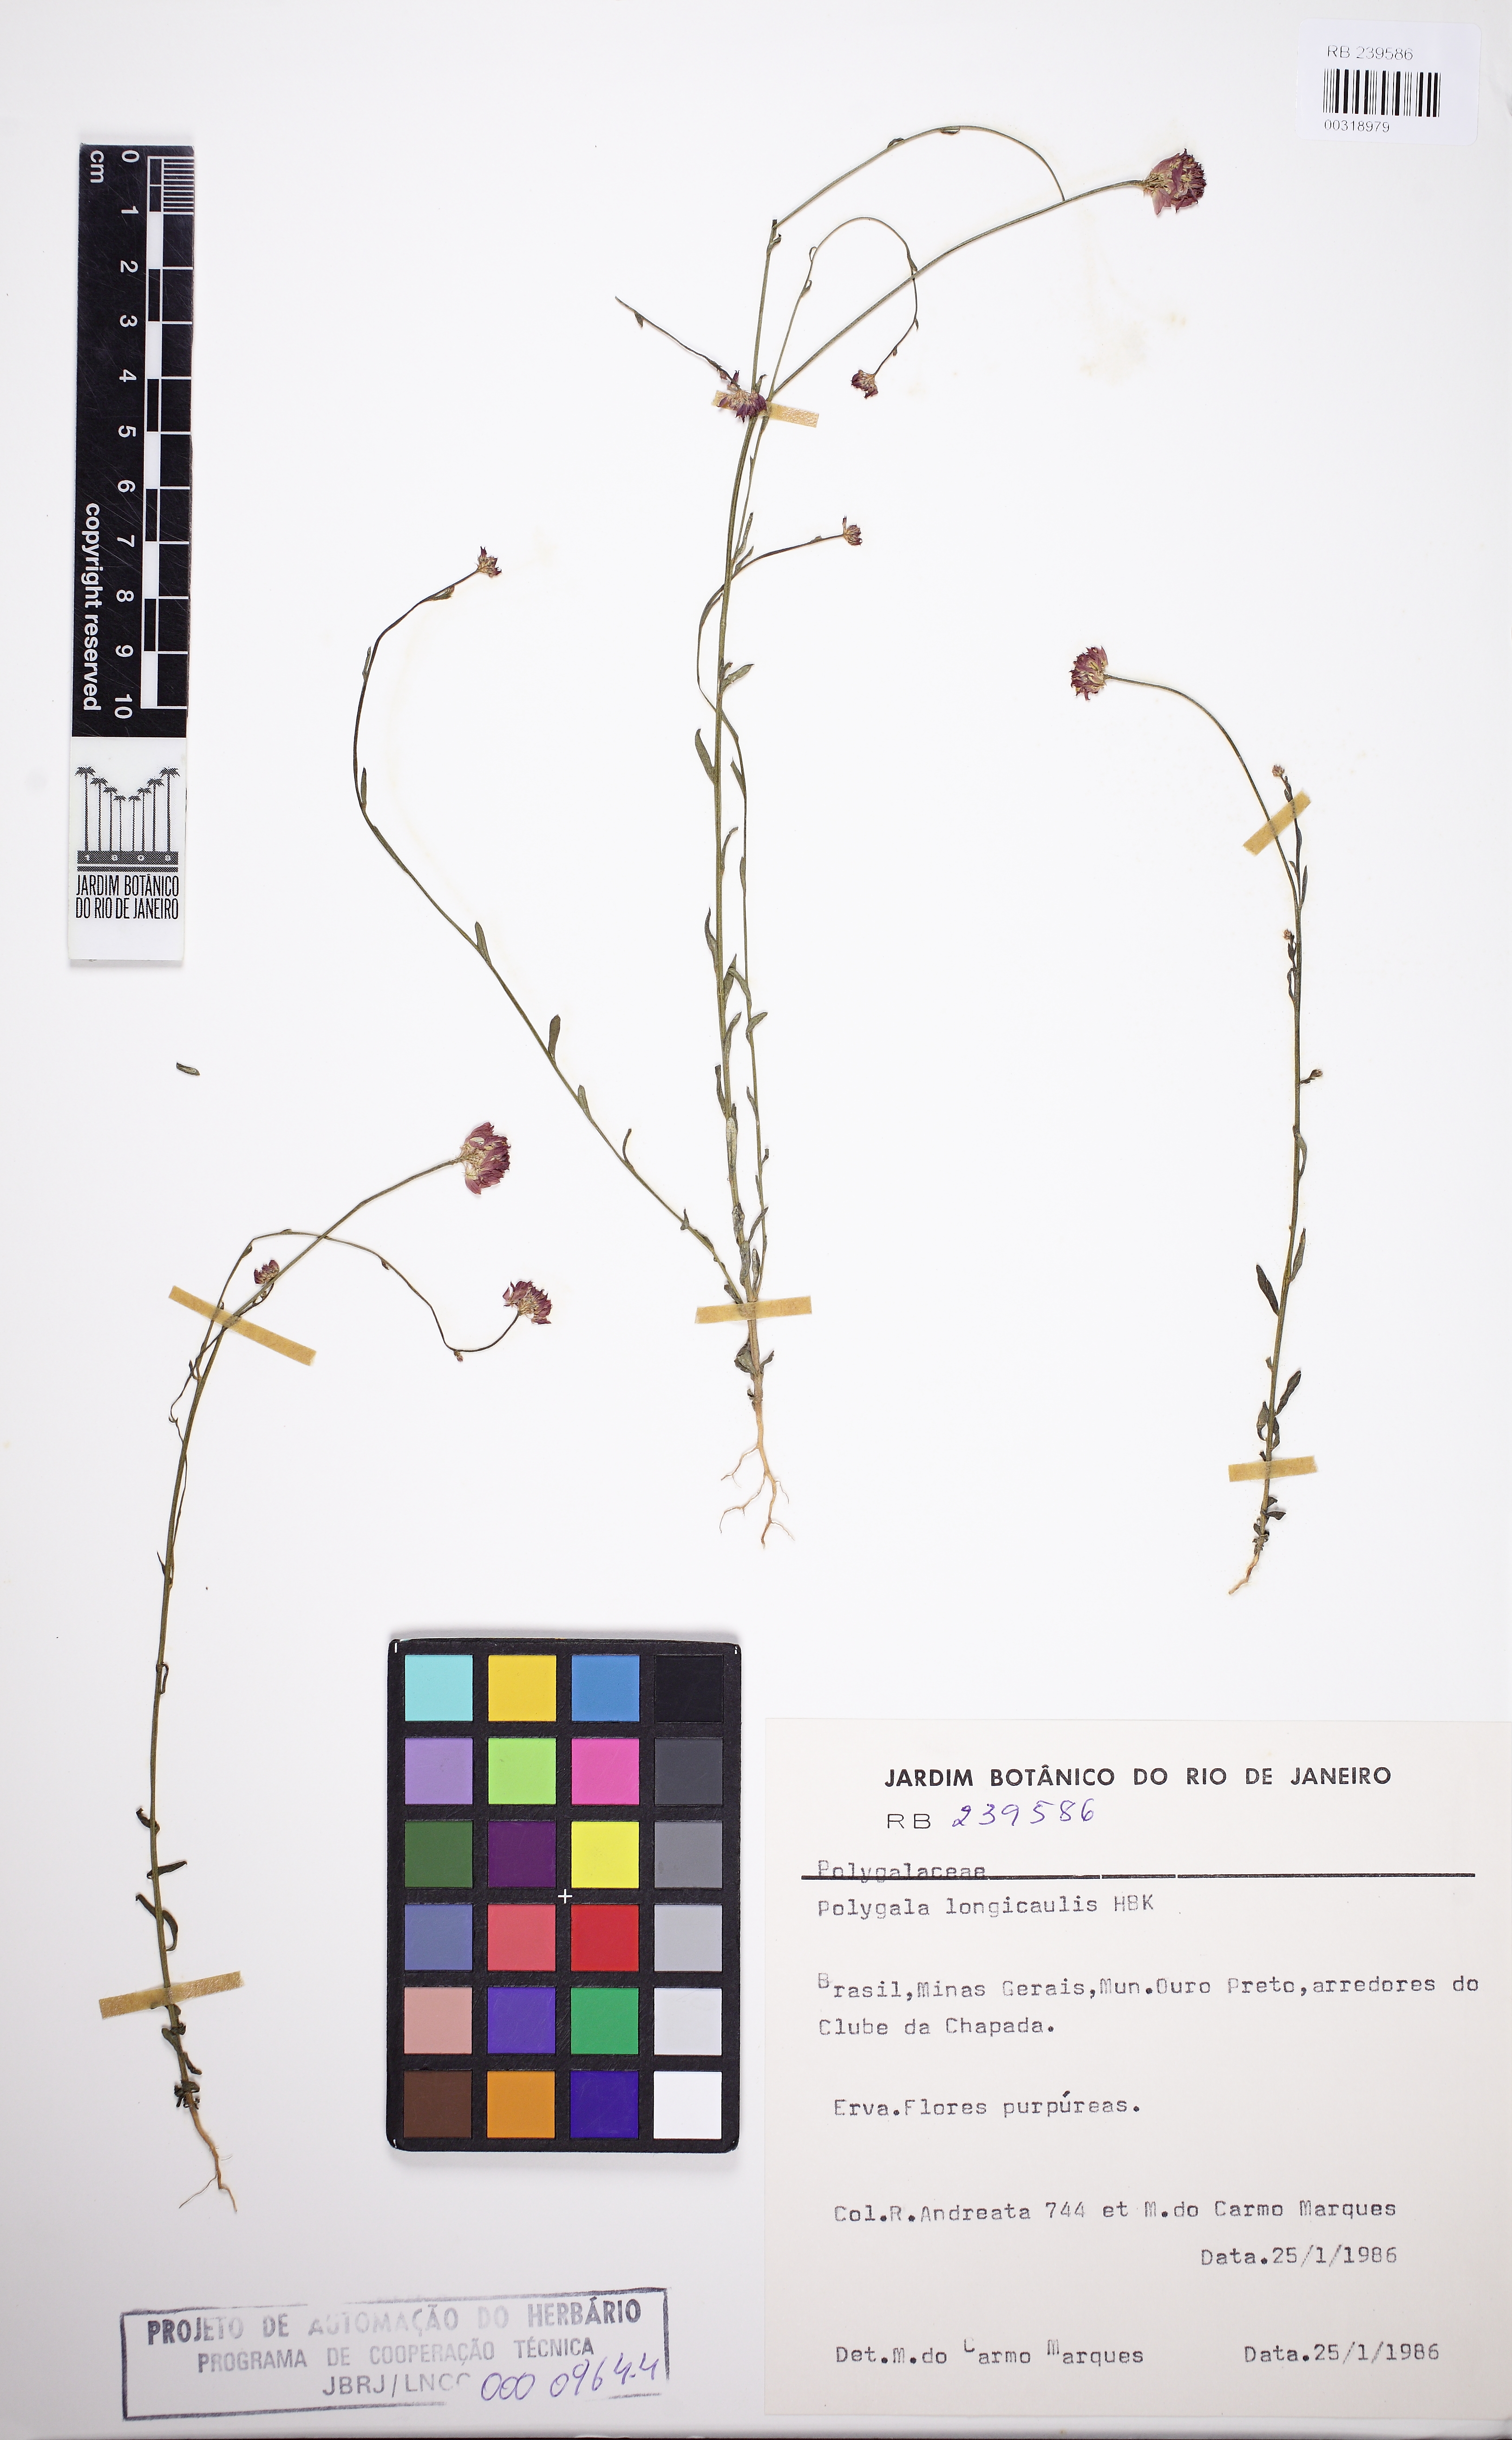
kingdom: Plantae
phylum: Tracheophyta
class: Magnoliopsida
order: Fabales
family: Polygalaceae
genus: Polygala
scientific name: Polygala longicaulis
